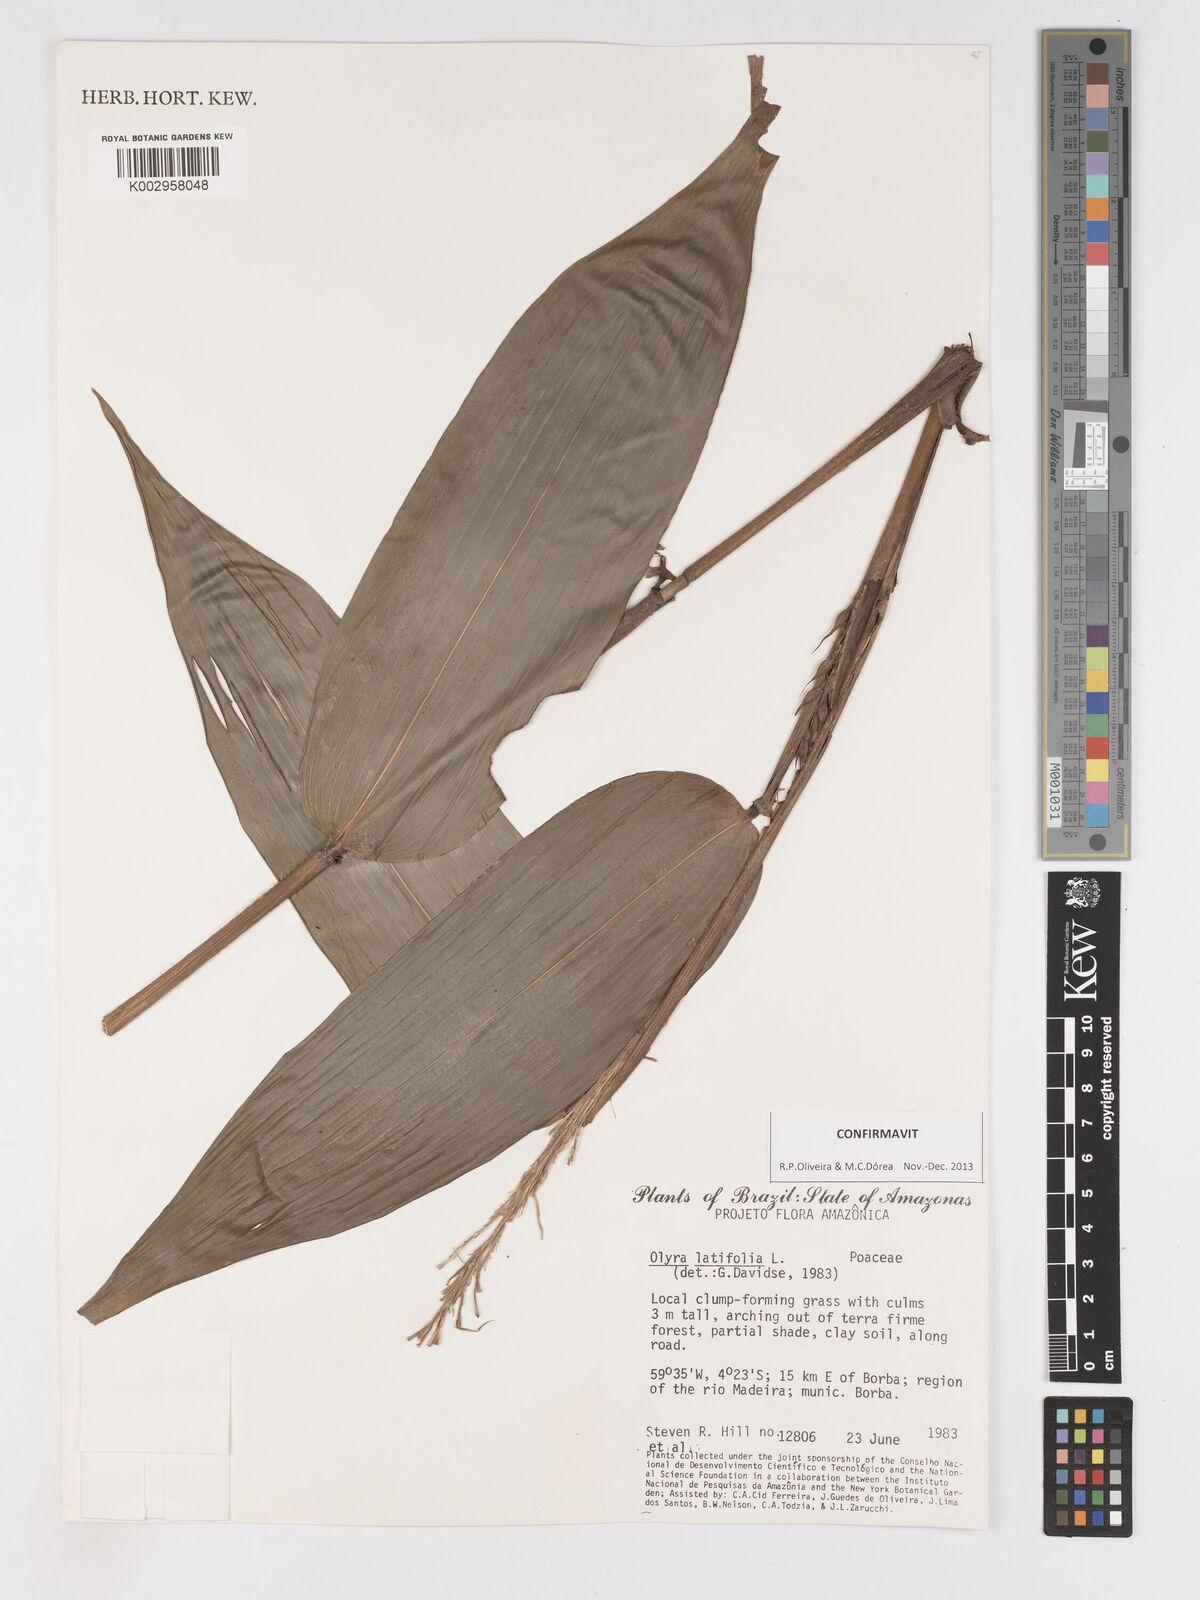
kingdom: Plantae
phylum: Tracheophyta
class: Liliopsida
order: Poales
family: Poaceae
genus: Olyra
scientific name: Olyra latifolia
